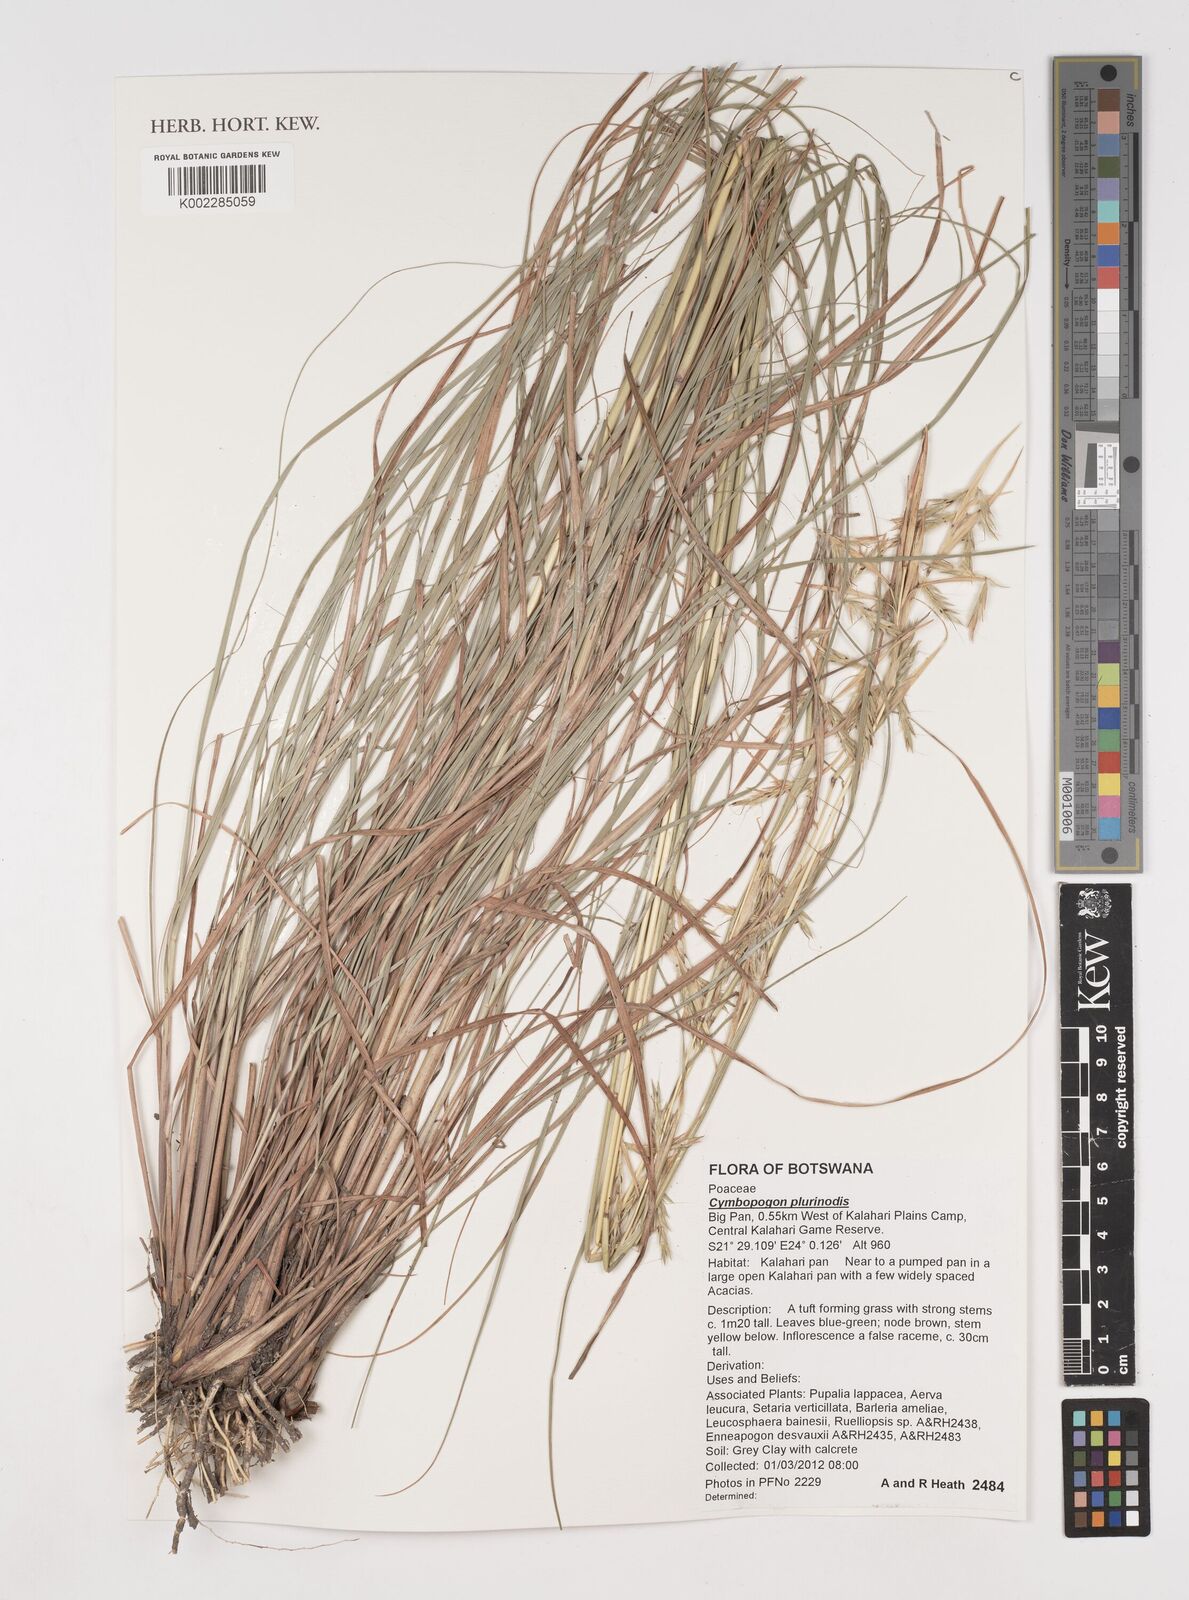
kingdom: Plantae
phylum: Tracheophyta
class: Liliopsida
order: Poales
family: Poaceae
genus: Cymbopogon
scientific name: Cymbopogon pospischilii
